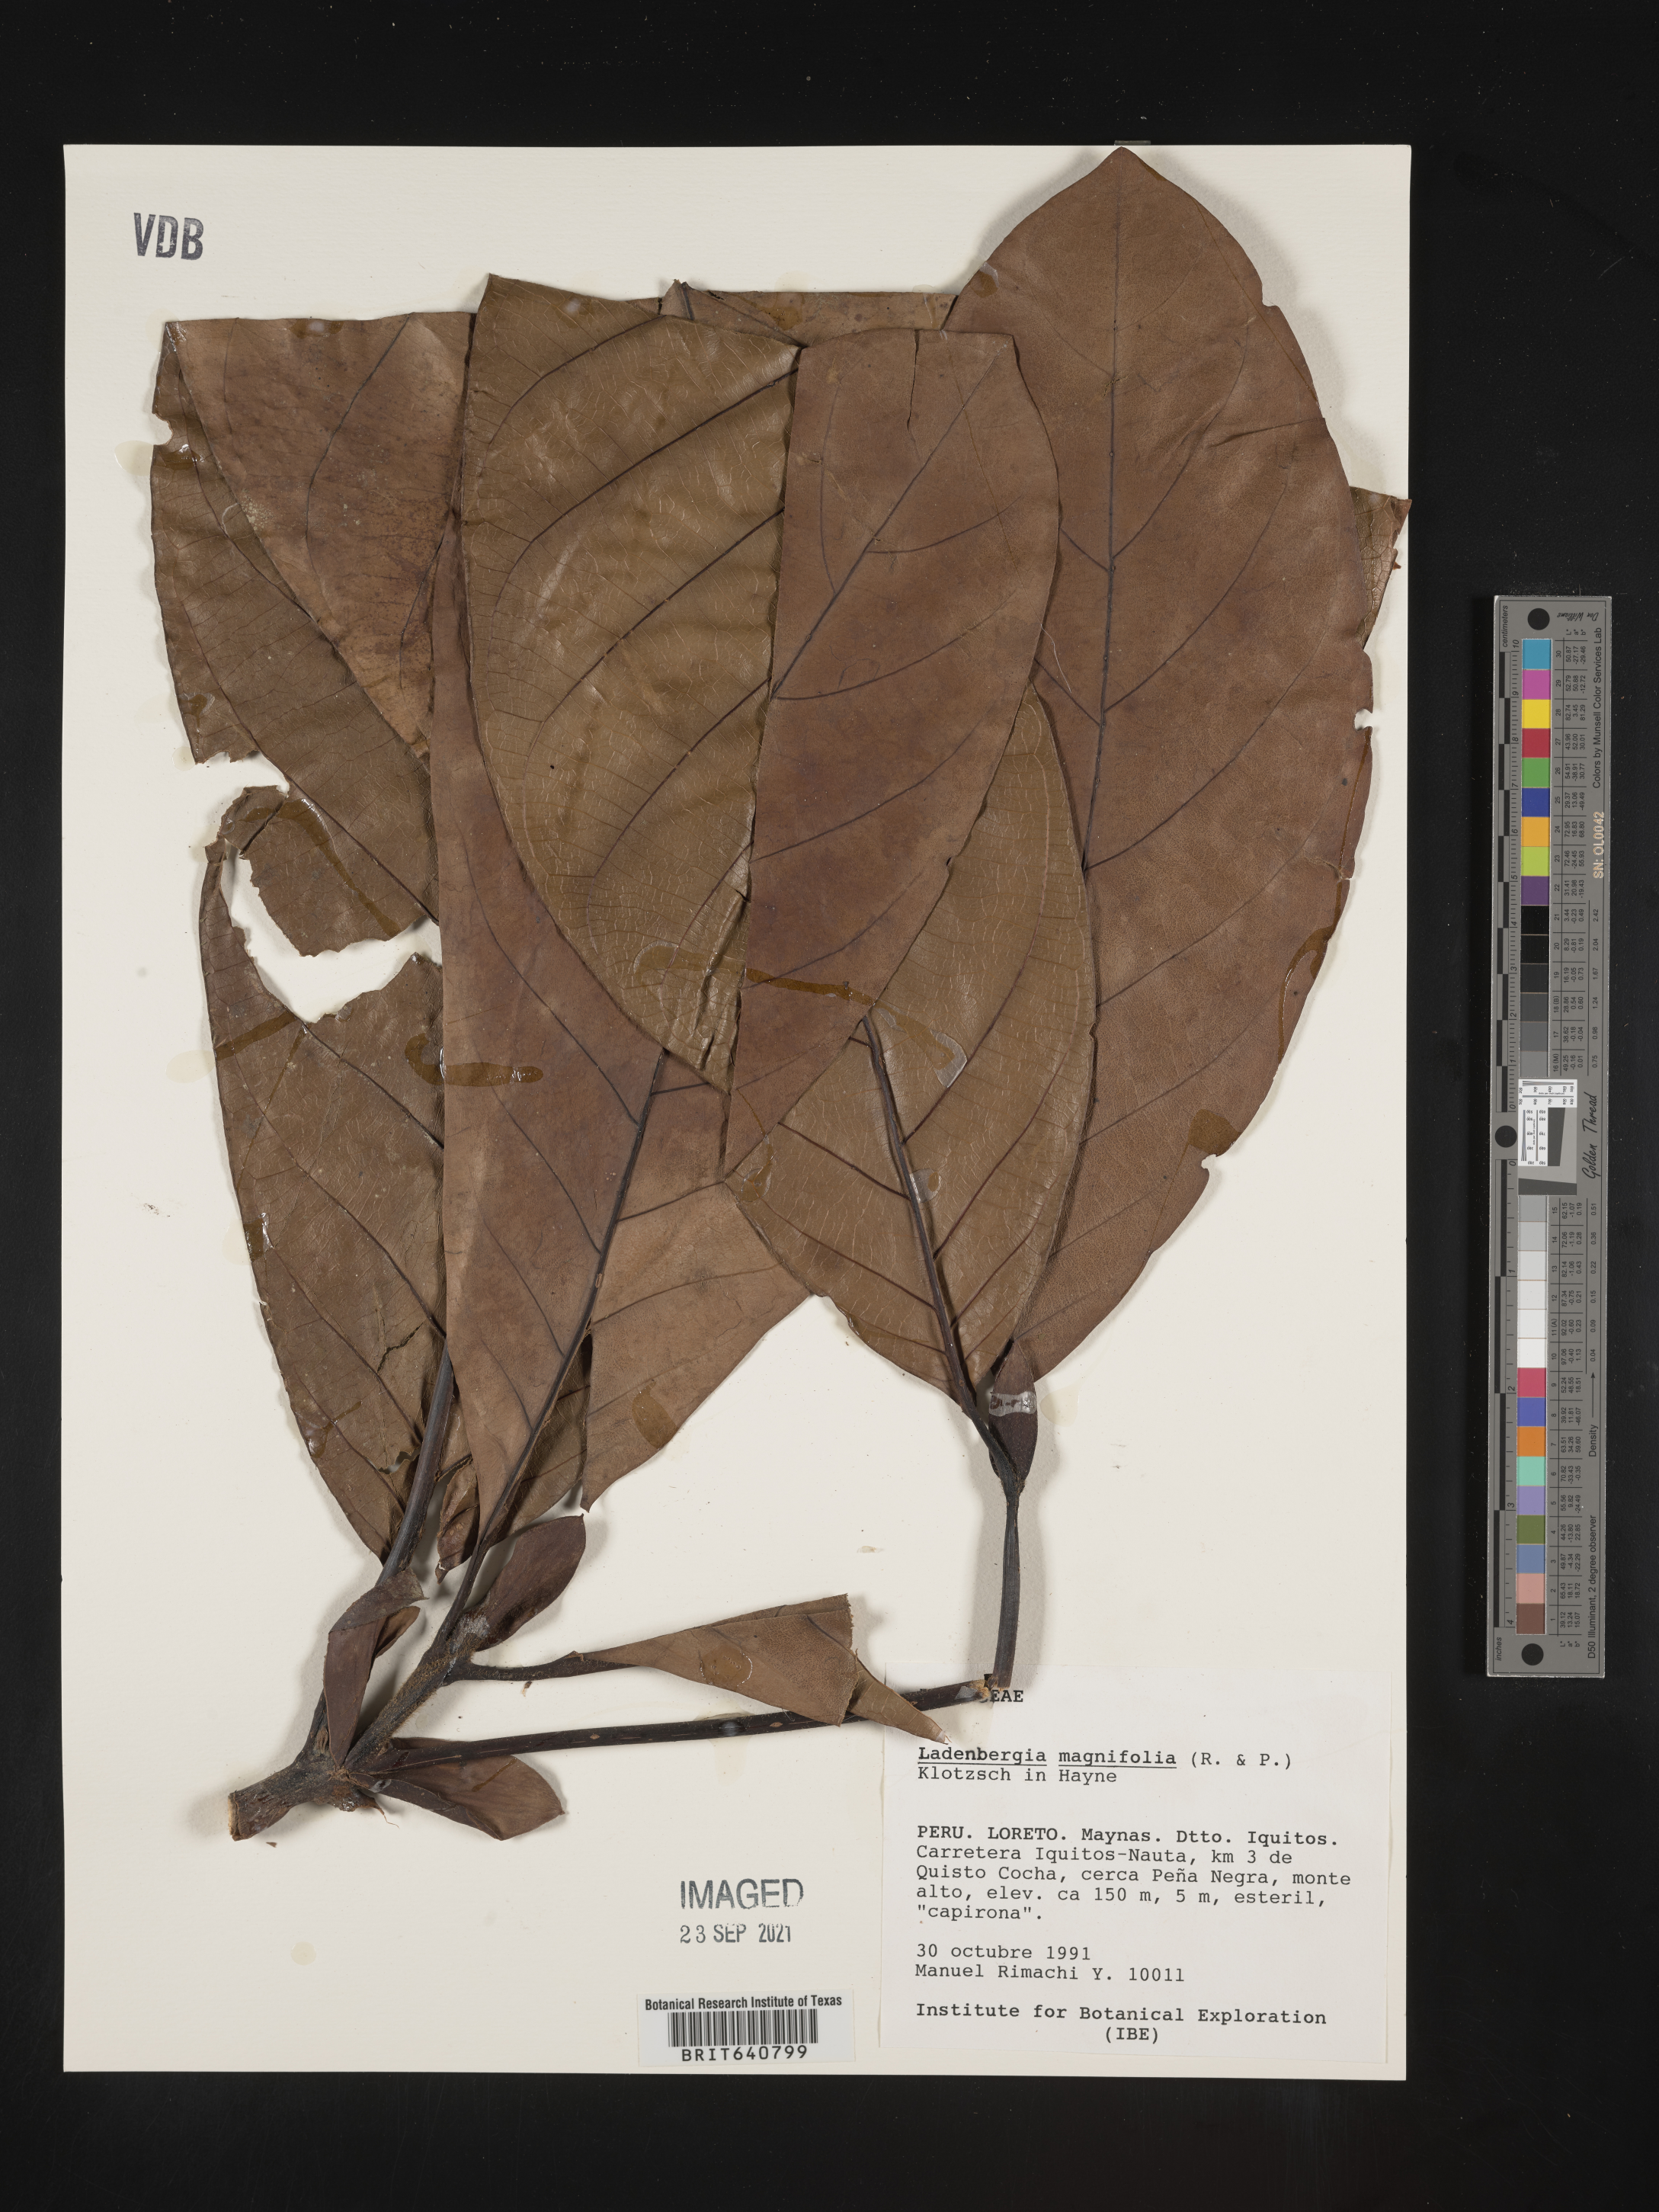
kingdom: Plantae
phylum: Tracheophyta
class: Magnoliopsida
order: Gentianales
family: Rubiaceae
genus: Ladenbergia
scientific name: Ladenbergia
